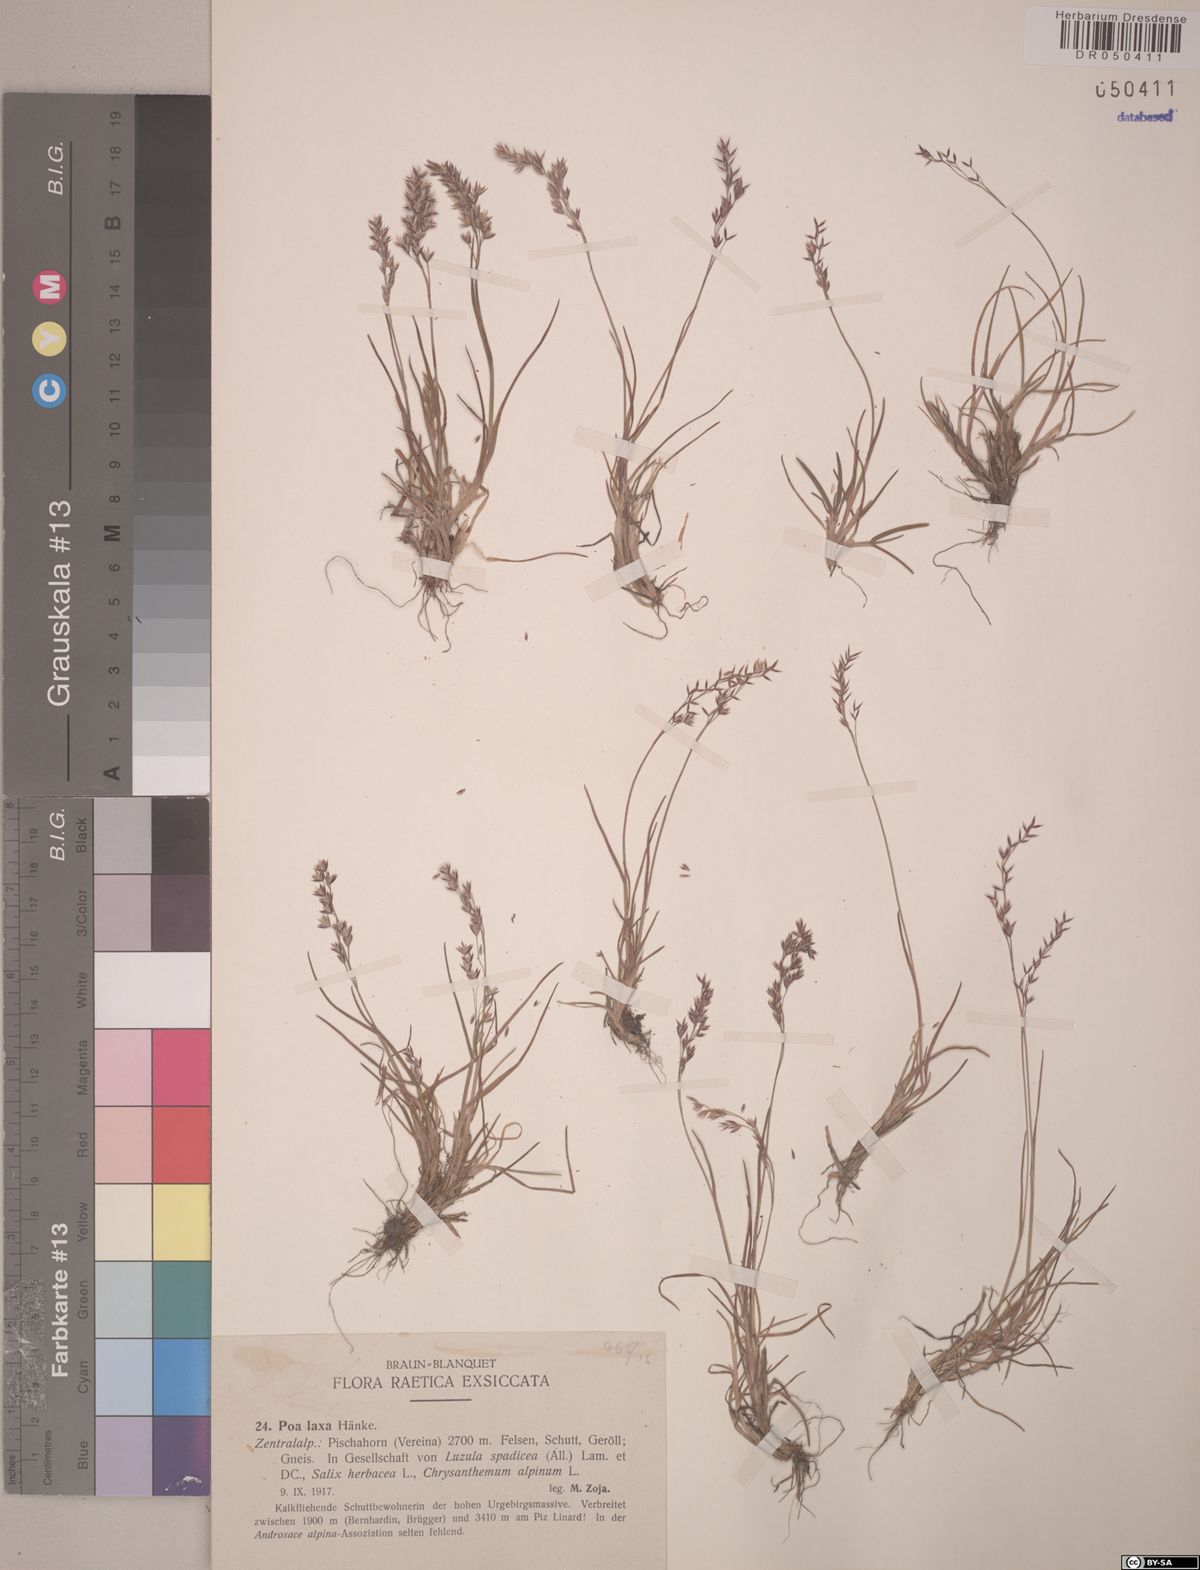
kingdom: Plantae
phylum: Tracheophyta
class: Liliopsida
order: Poales
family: Poaceae
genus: Poa
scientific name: Poa laxa
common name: Lax bluegrass
